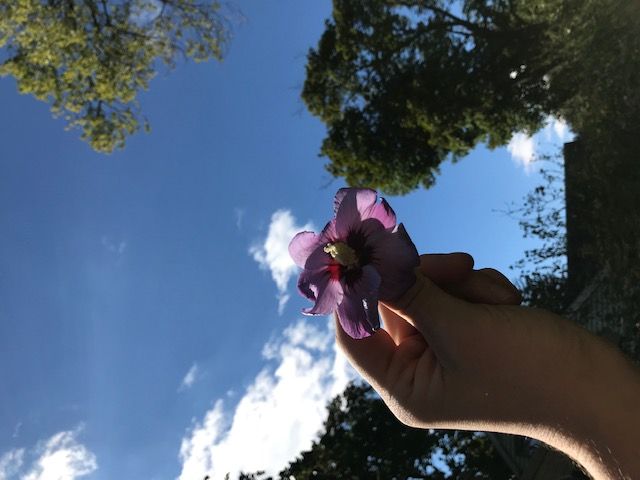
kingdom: Plantae
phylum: Tracheophyta
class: Magnoliopsida
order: Malvales
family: Malvaceae
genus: Hibiscus
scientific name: Hibiscus syriacus
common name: Common Hibiscus
